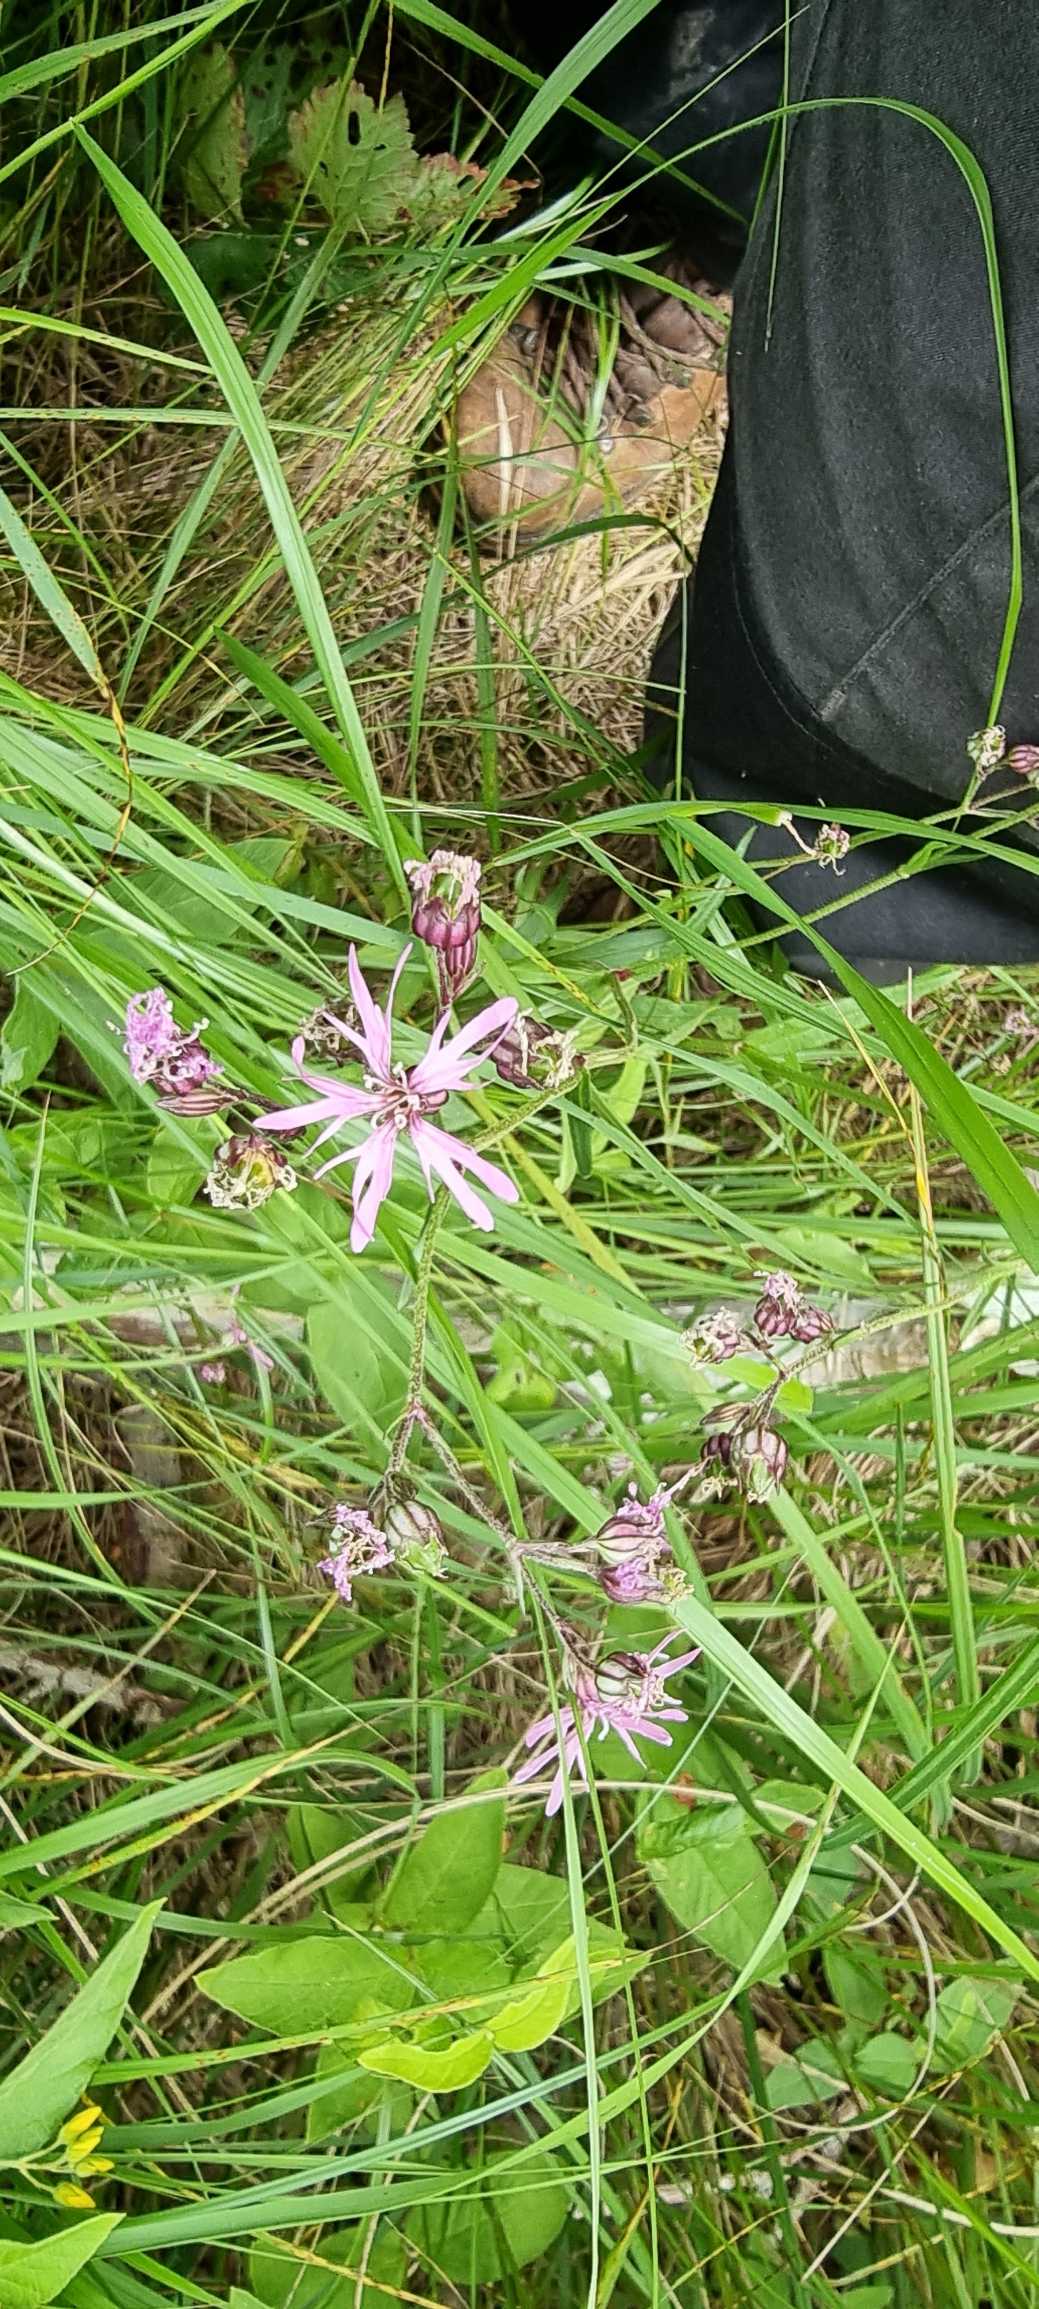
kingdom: Plantae
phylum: Tracheophyta
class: Magnoliopsida
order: Caryophyllales
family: Caryophyllaceae
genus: Silene
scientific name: Silene flos-cuculi
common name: Trævlekrone
